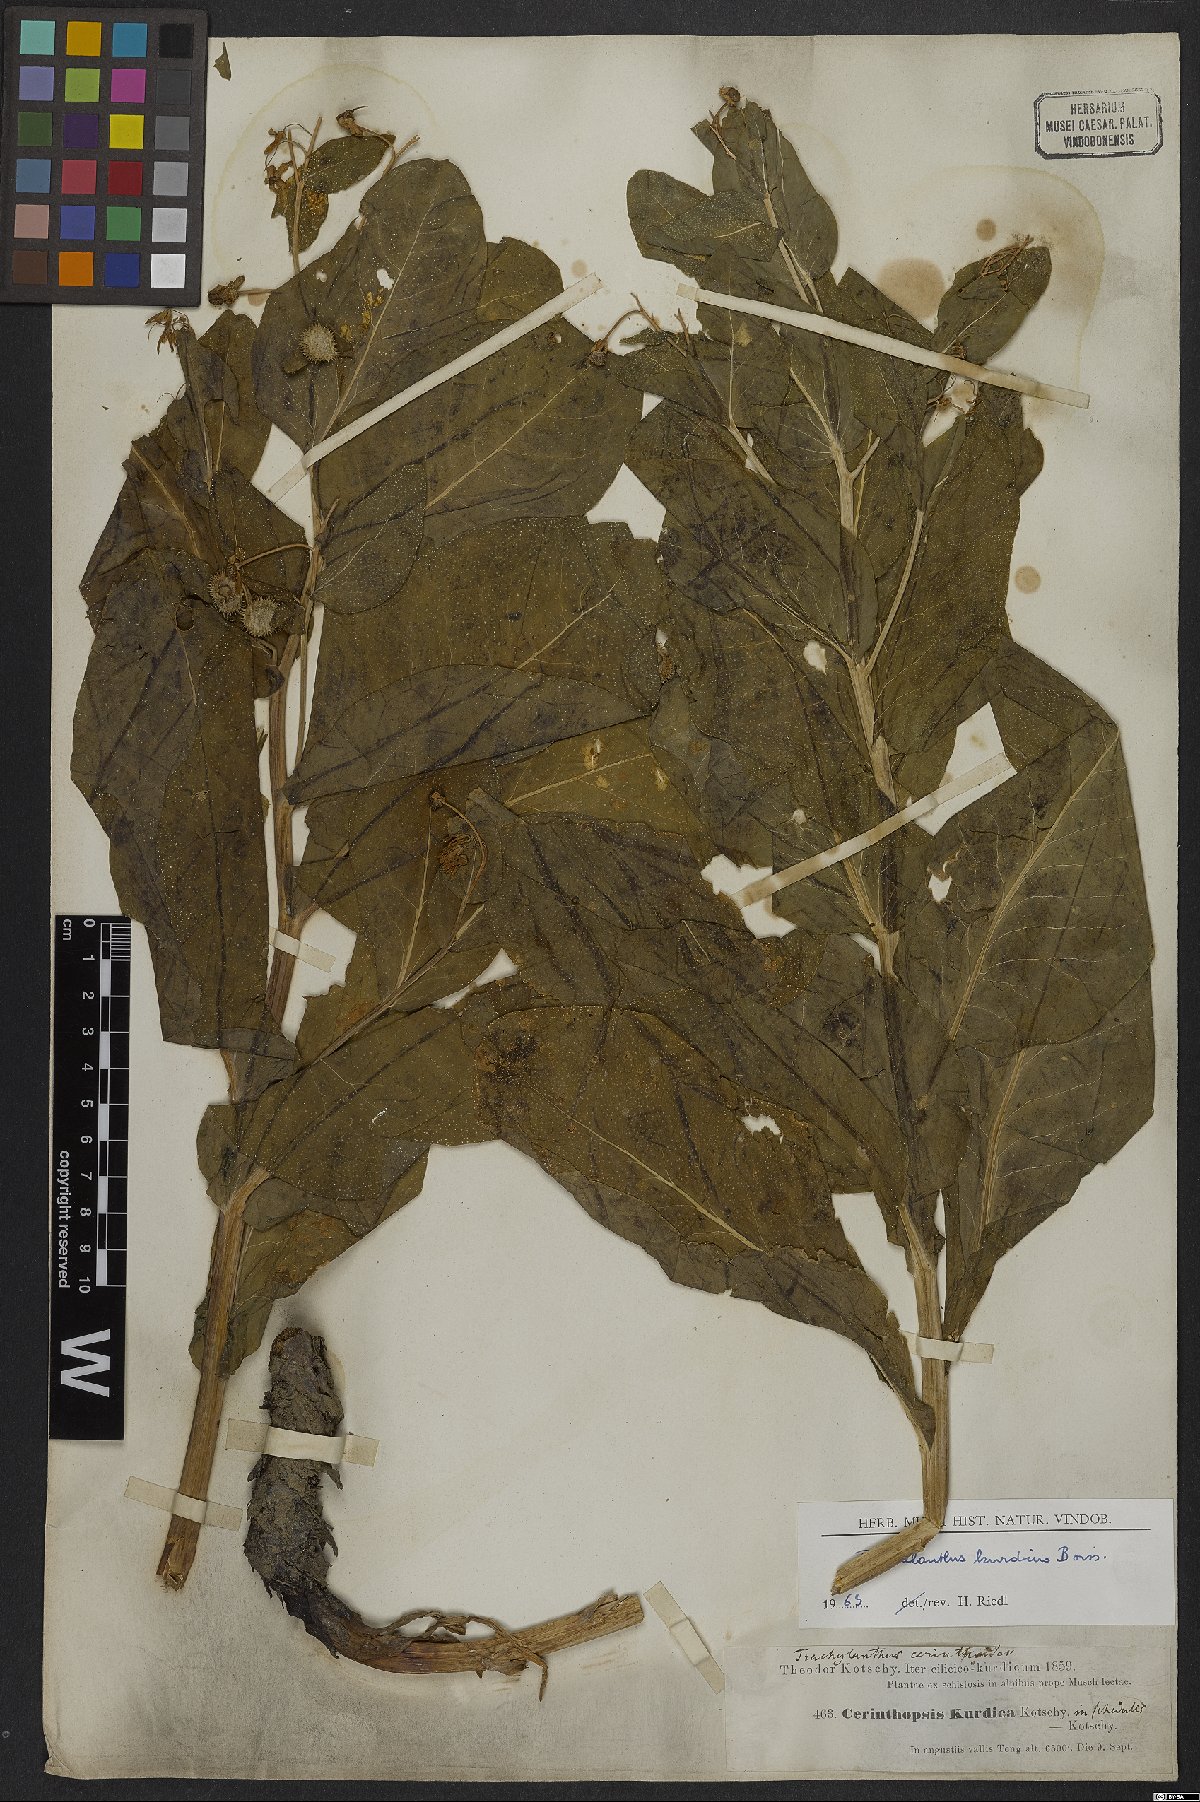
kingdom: Plantae
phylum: Tracheophyta
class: Magnoliopsida
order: Boraginales
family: Boraginaceae
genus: Lindelofia
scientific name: Lindelofia cerinthoides
